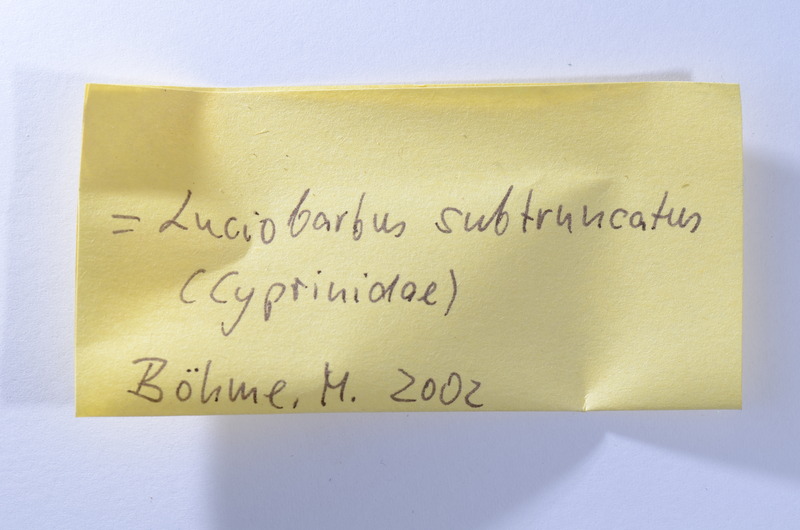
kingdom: Animalia
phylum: Chordata
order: Cypriniformes
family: Cyprinidae
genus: Capitodus
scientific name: Capitodus
